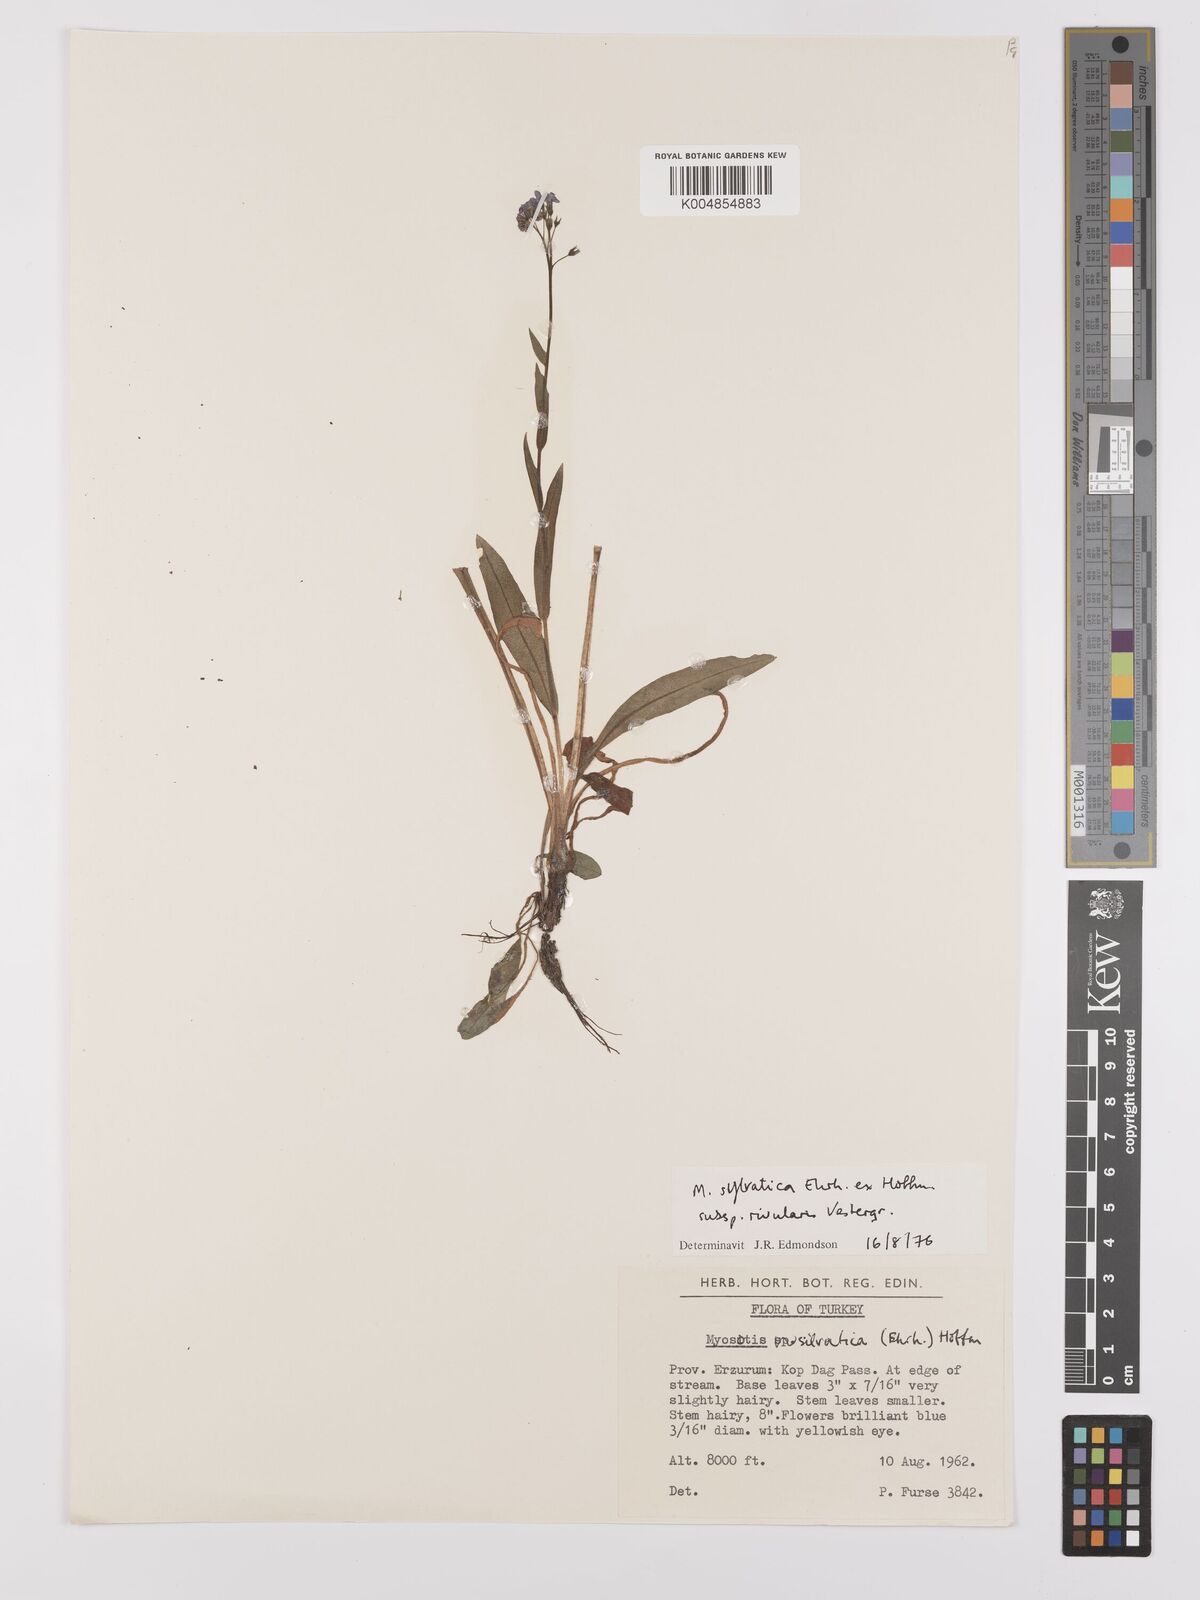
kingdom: Plantae
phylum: Tracheophyta
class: Magnoliopsida
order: Boraginales
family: Boraginaceae
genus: Myosotis
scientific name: Myosotis sylvatica
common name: Wood forget-me-not
